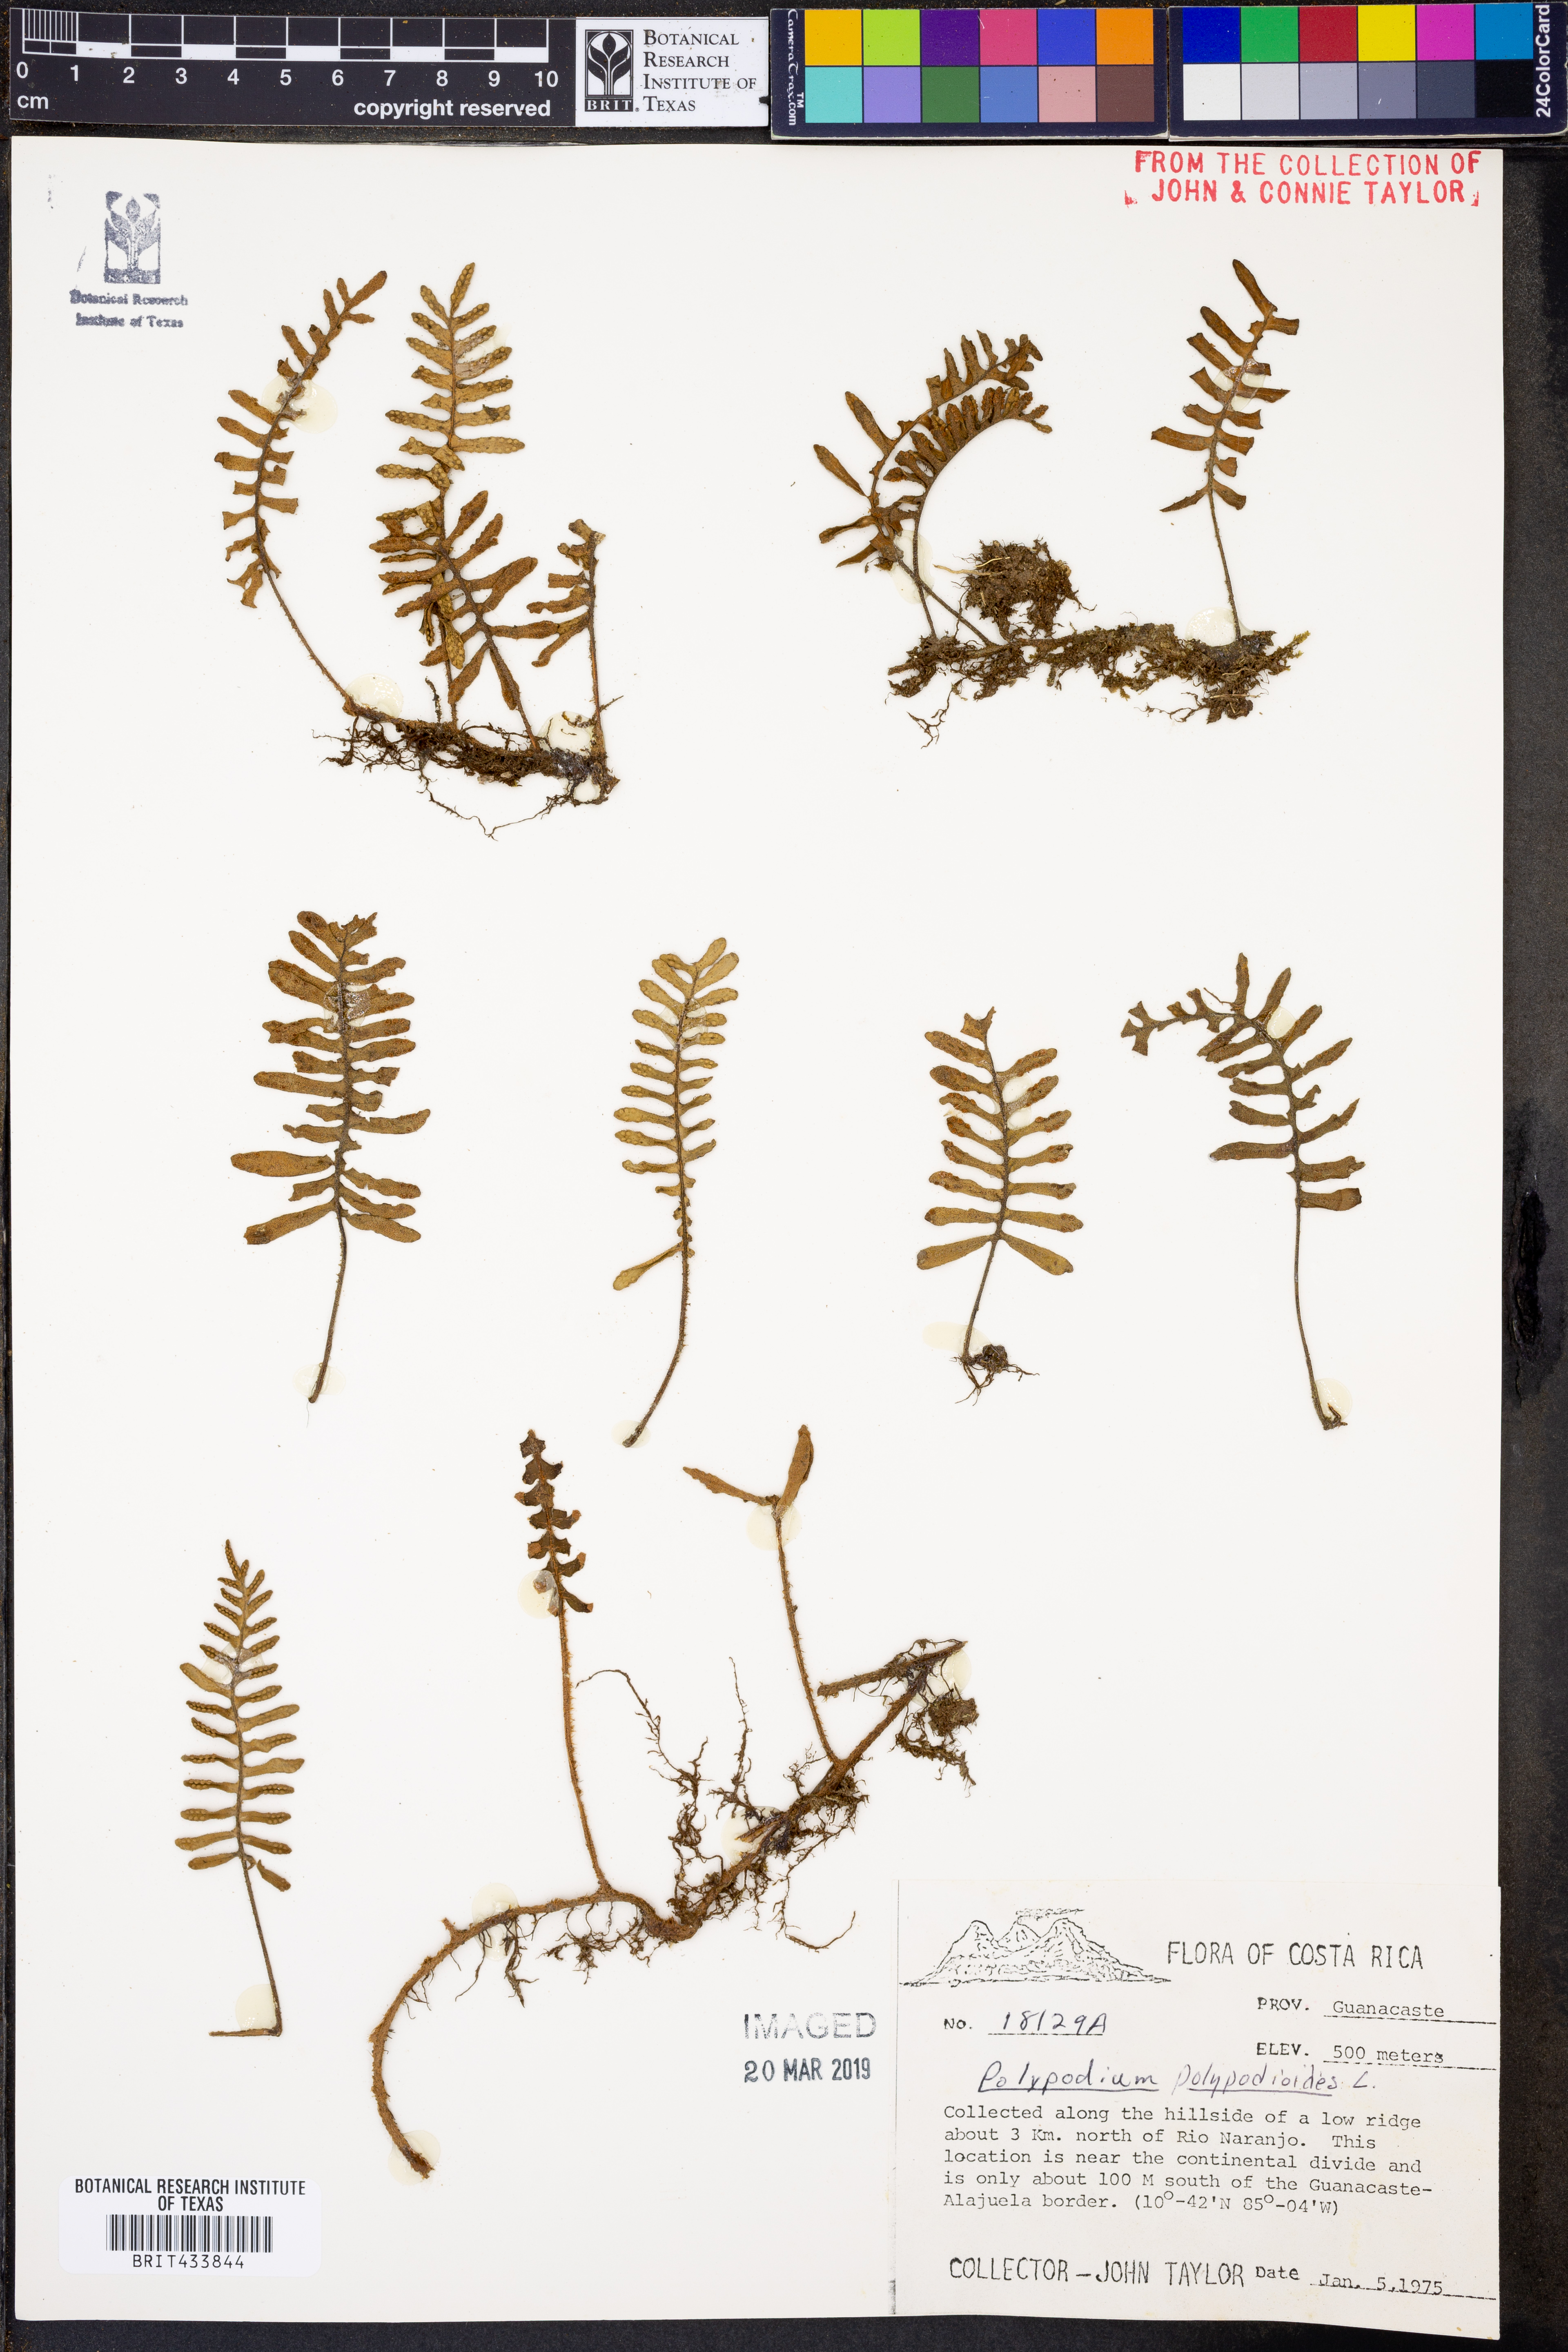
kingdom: Plantae
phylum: Tracheophyta
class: Polypodiopsida
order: Polypodiales
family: Polypodiaceae
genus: Pleopeltis
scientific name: Pleopeltis polypodioides
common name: Resurrection fern
